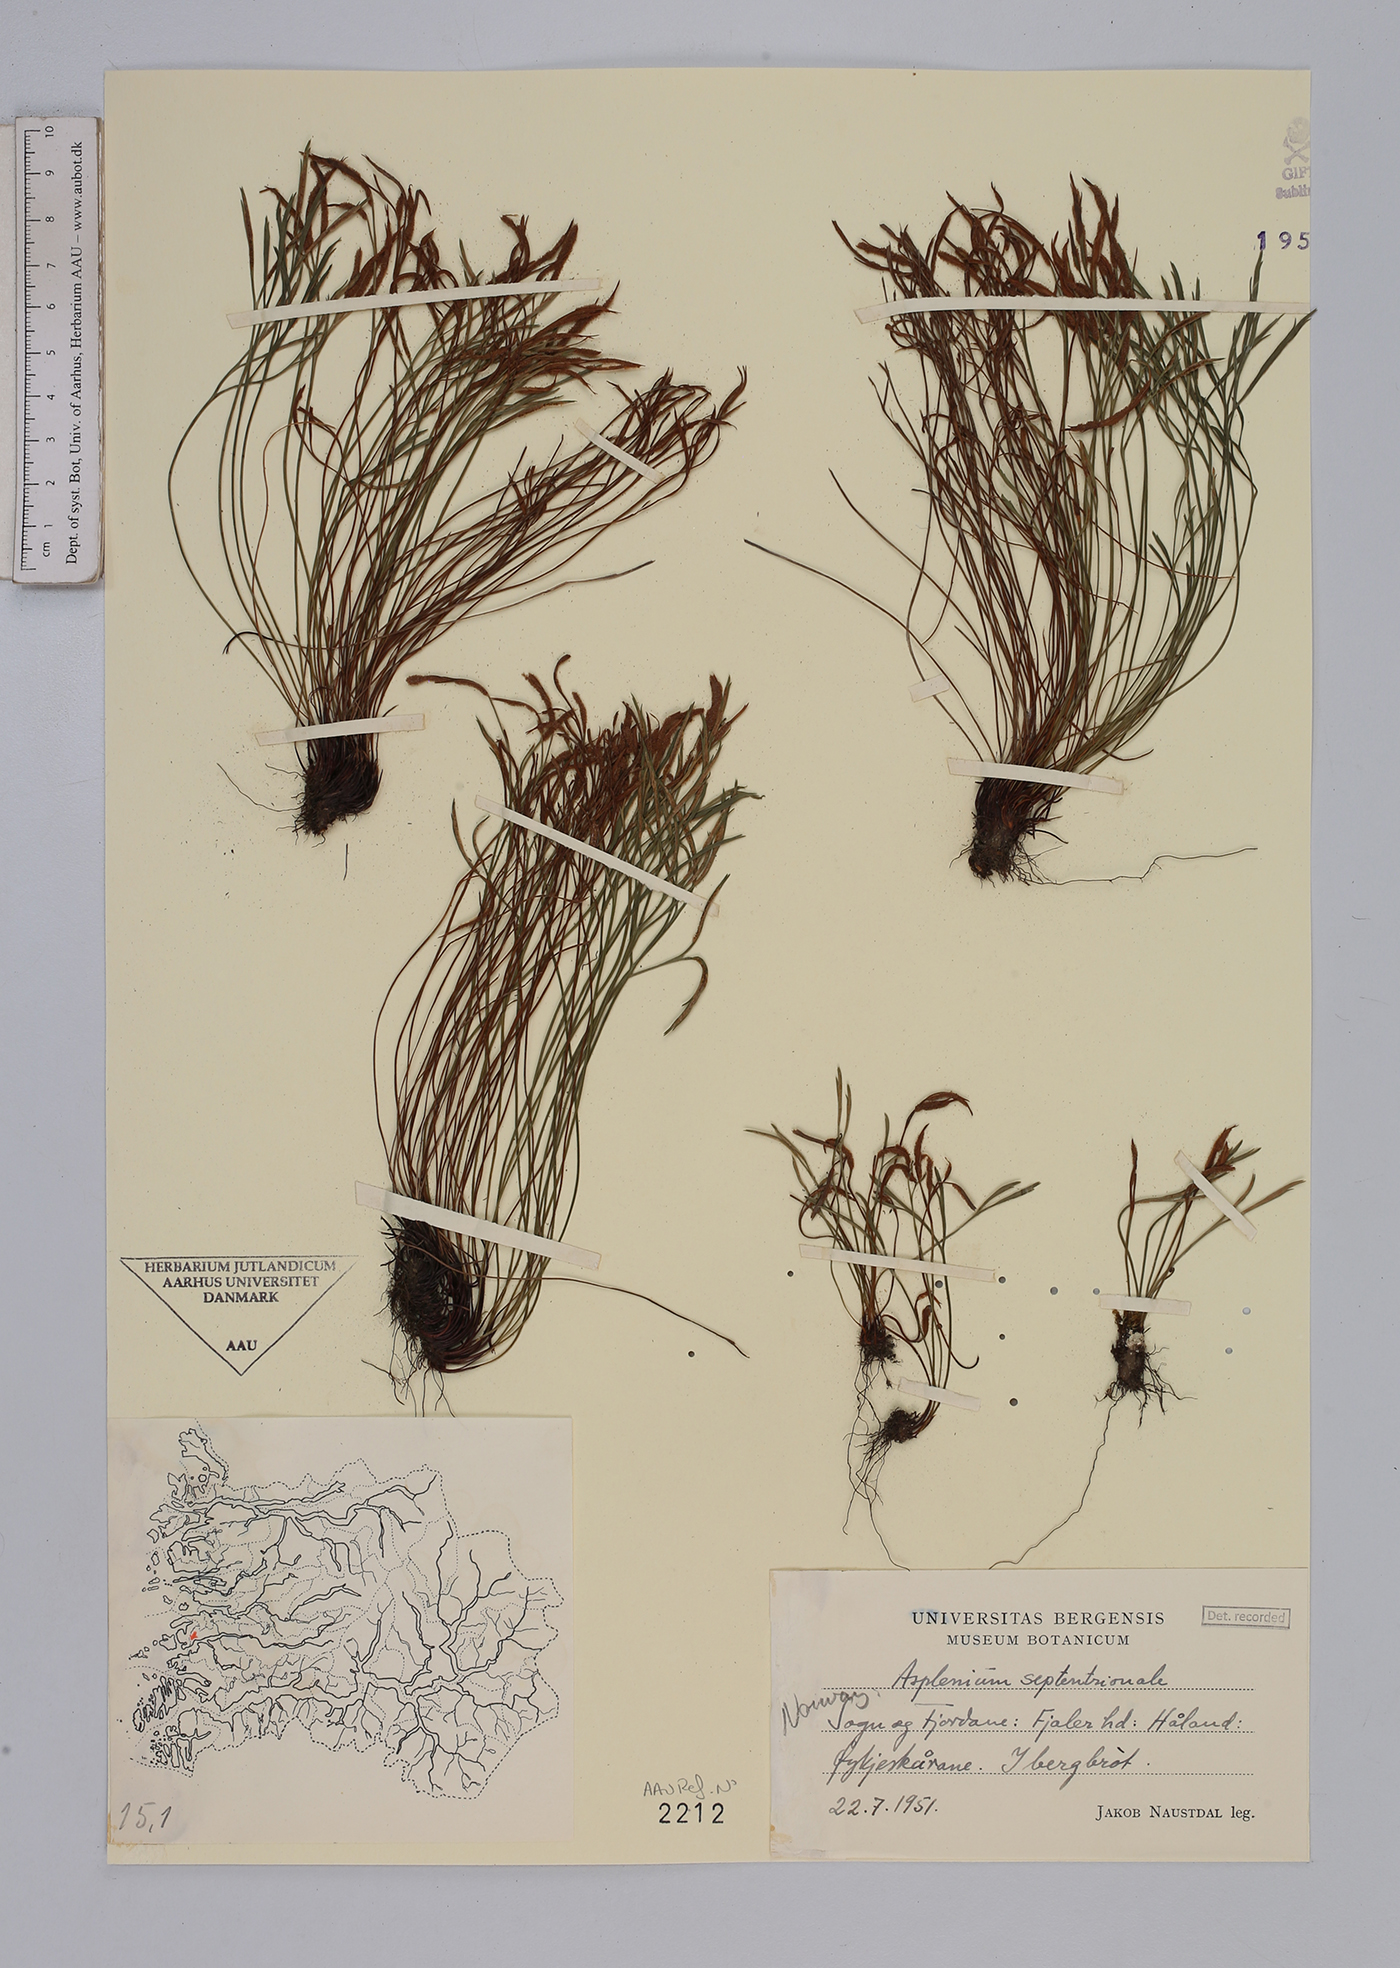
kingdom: Plantae
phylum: Tracheophyta
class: Polypodiopsida
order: Polypodiales
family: Aspleniaceae
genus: Asplenium
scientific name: Asplenium septentrionale
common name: Forked spleenwort
